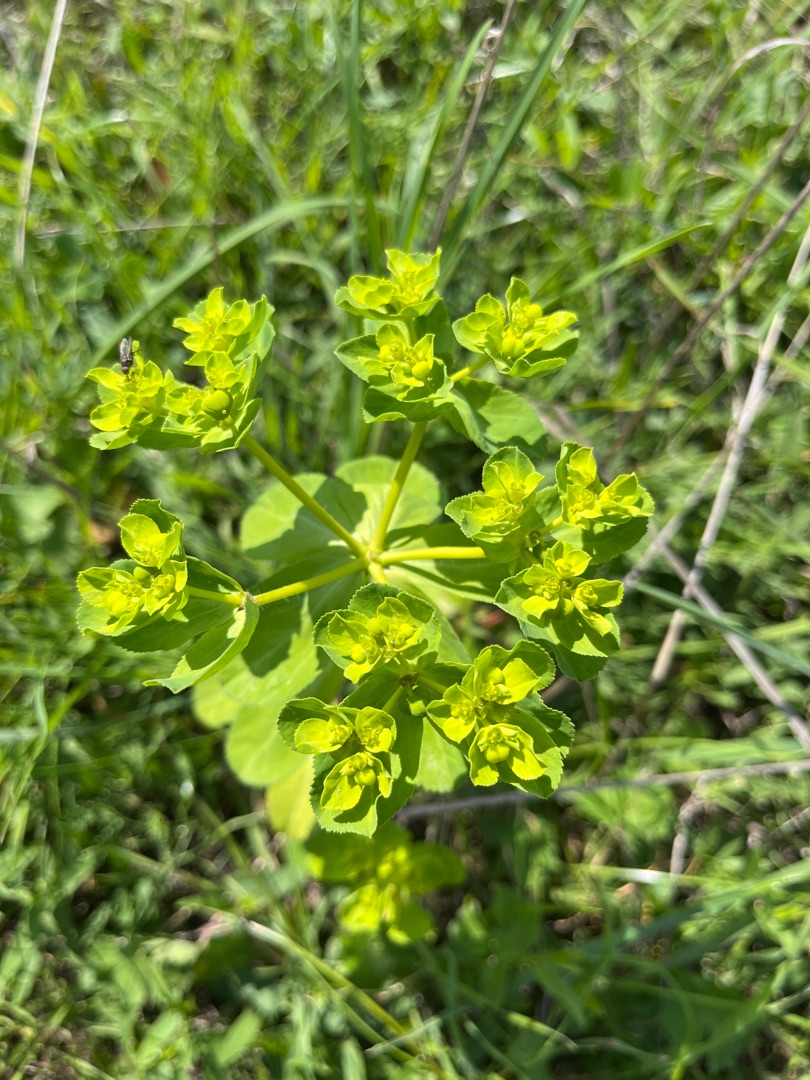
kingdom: Plantae
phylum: Tracheophyta
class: Magnoliopsida
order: Malpighiales
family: Euphorbiaceae
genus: Euphorbia
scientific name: Euphorbia helioscopia
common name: Skærm-vortemælk
